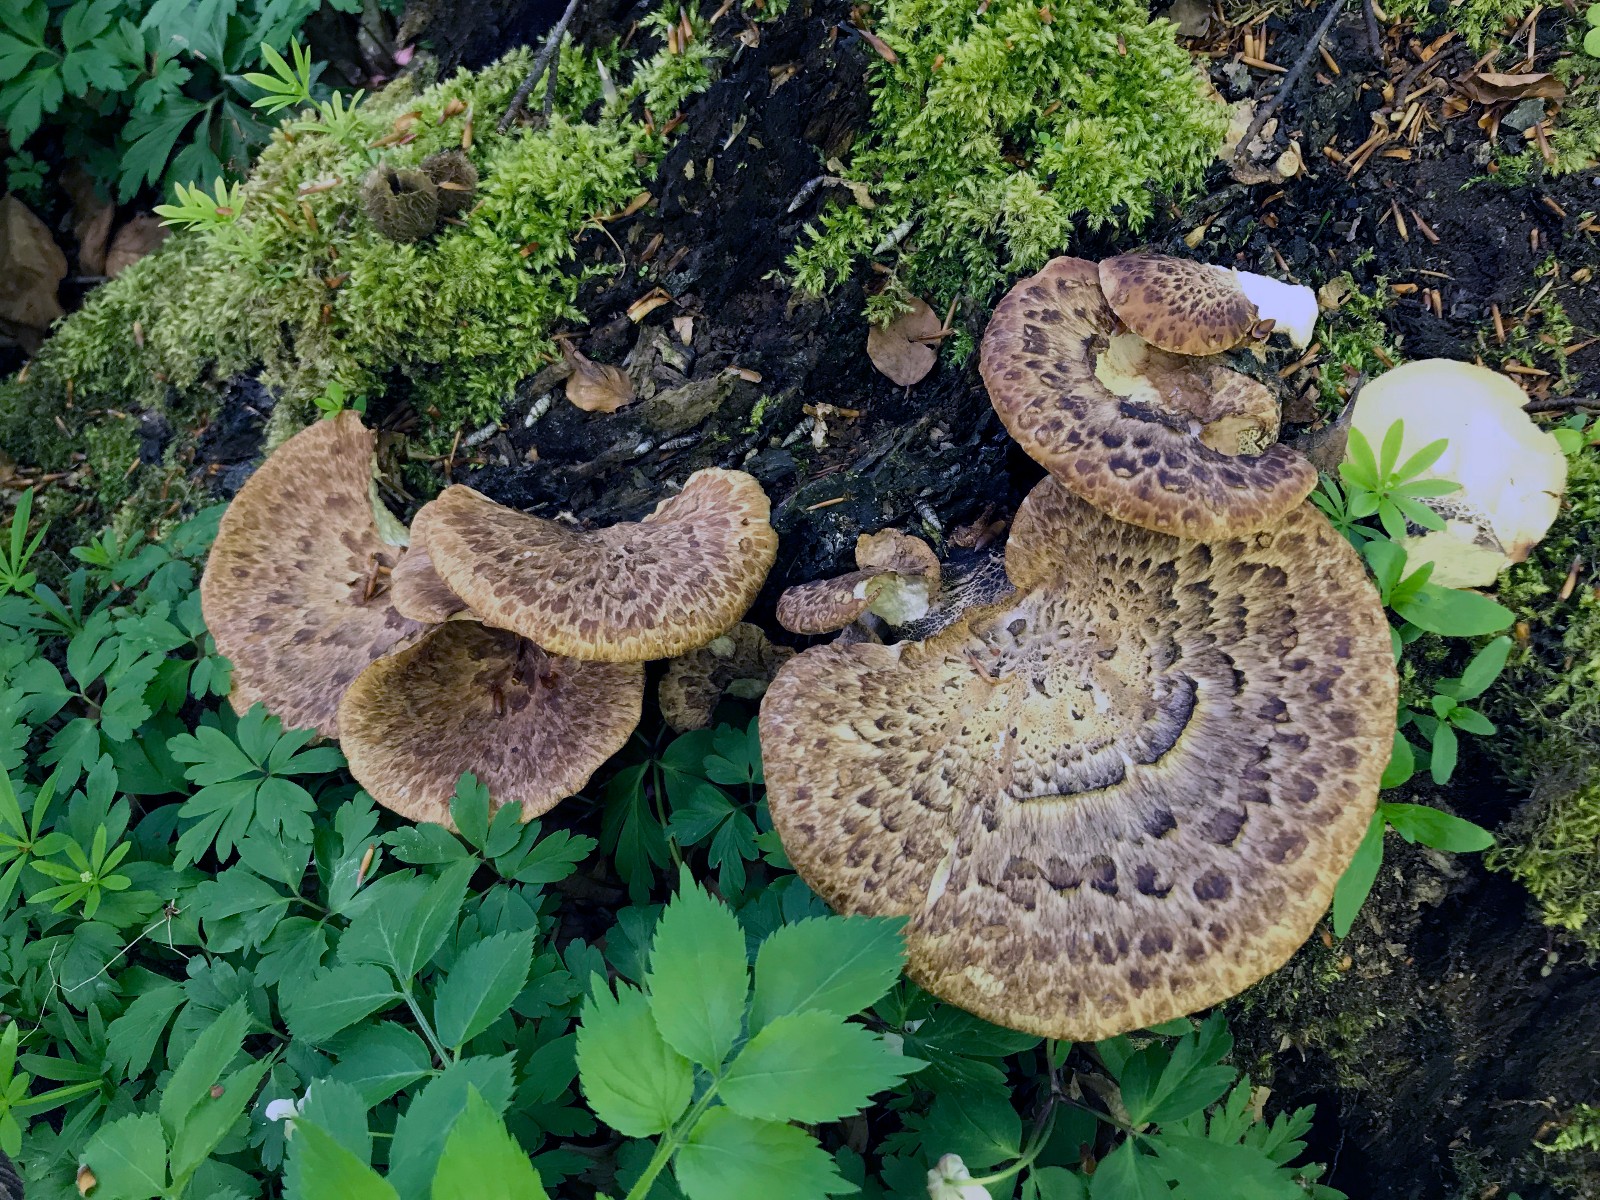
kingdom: Fungi
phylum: Basidiomycota
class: Agaricomycetes
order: Polyporales
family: Polyporaceae
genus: Cerioporus
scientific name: Cerioporus squamosus
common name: skællet stilkporesvamp
